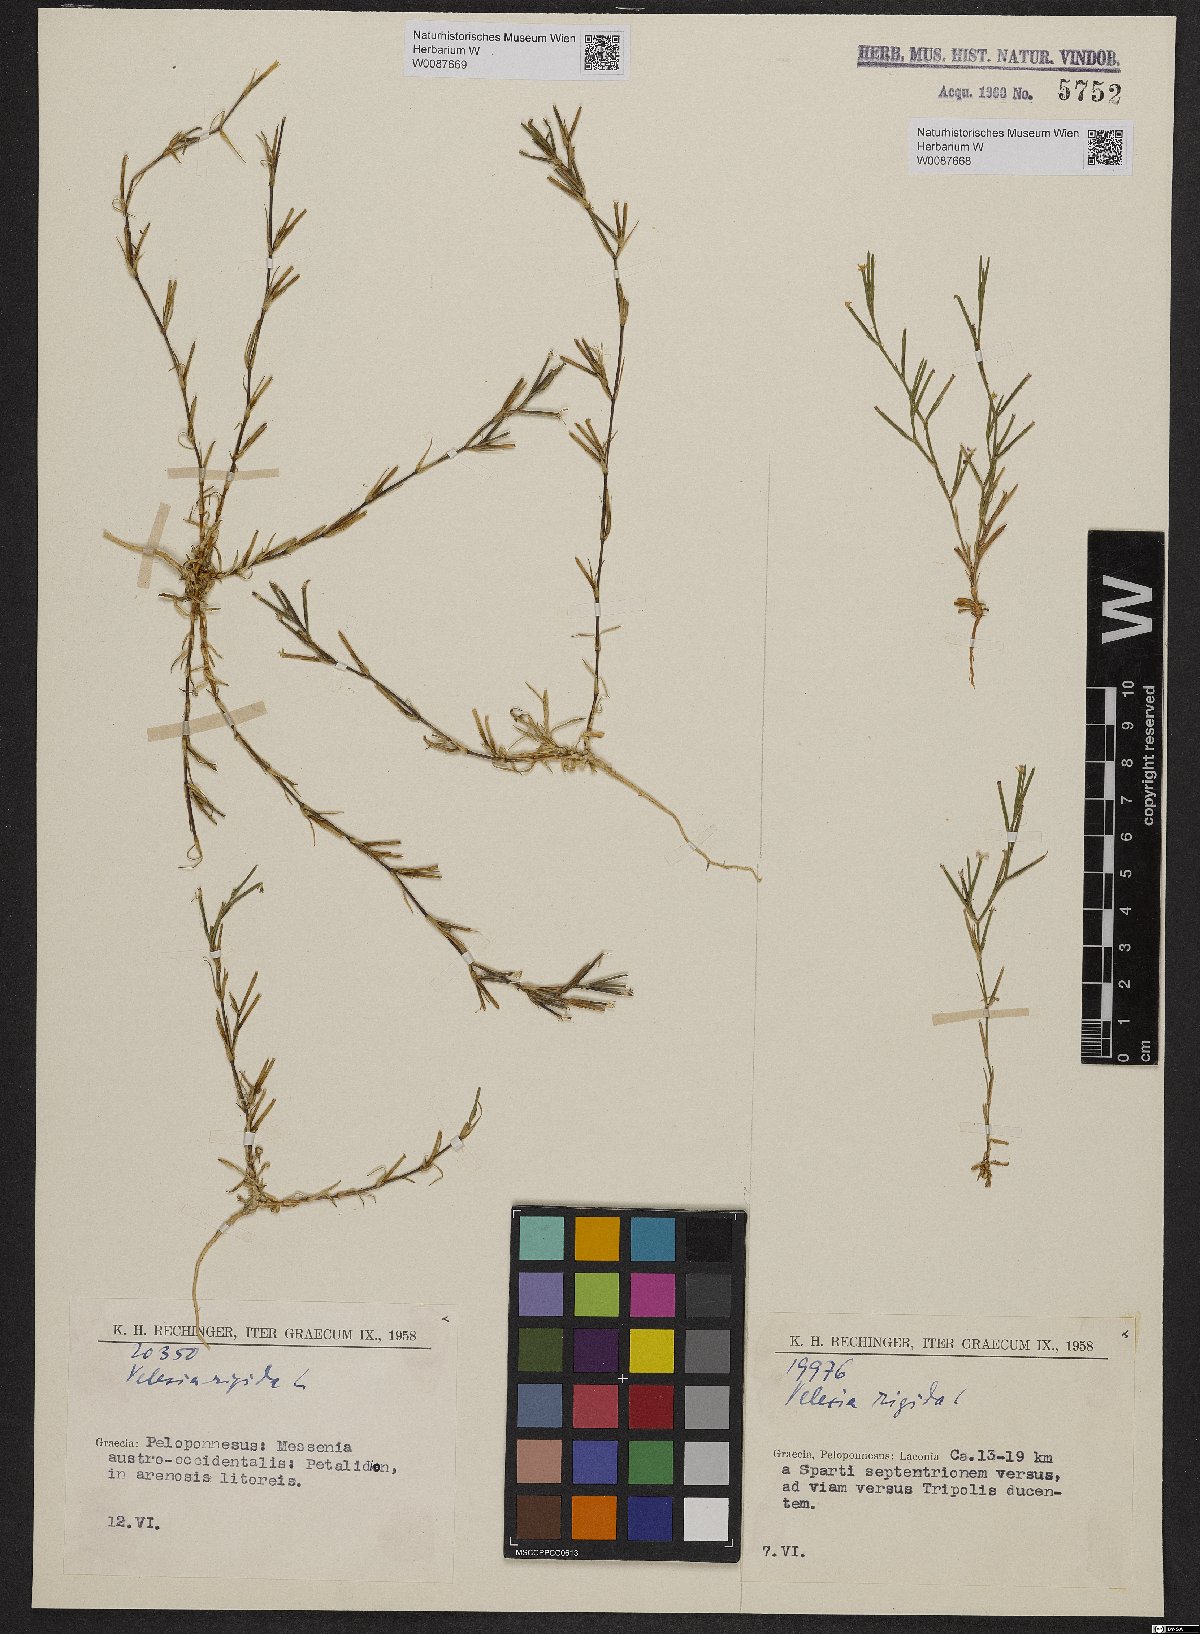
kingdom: Plantae
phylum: Tracheophyta
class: Magnoliopsida
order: Caryophyllales
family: Caryophyllaceae
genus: Dianthus
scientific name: Dianthus nudiflorus
